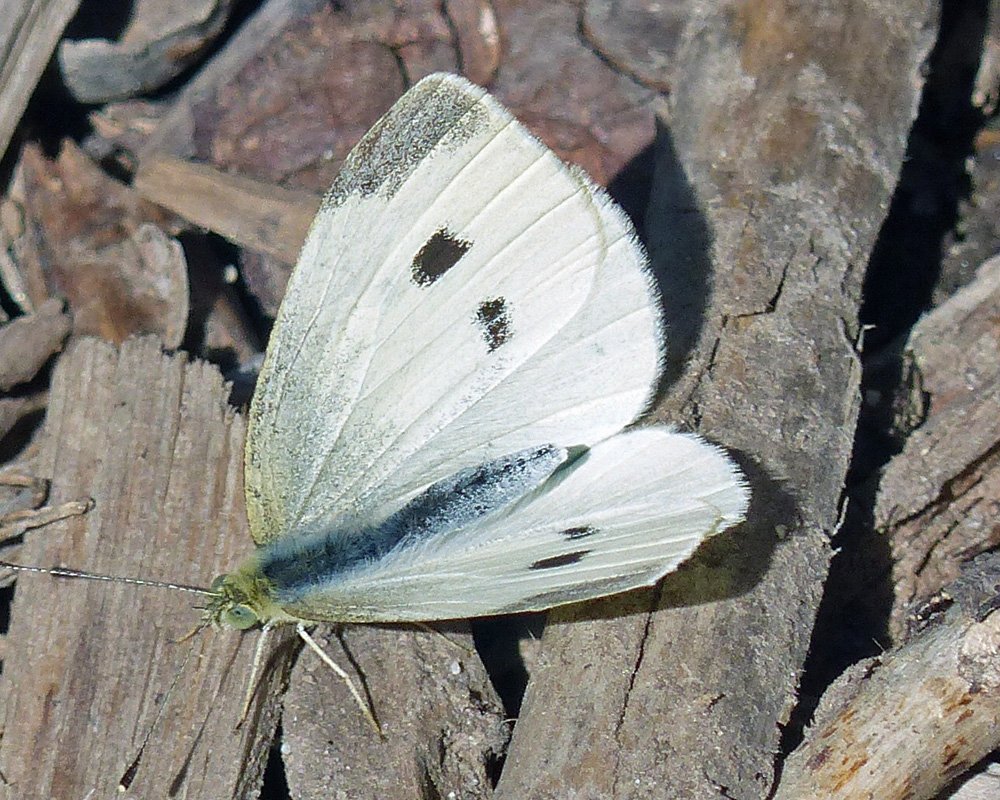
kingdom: Animalia
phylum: Arthropoda
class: Insecta
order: Lepidoptera
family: Pieridae
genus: Pieris
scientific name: Pieris rapae
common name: Cabbage White
